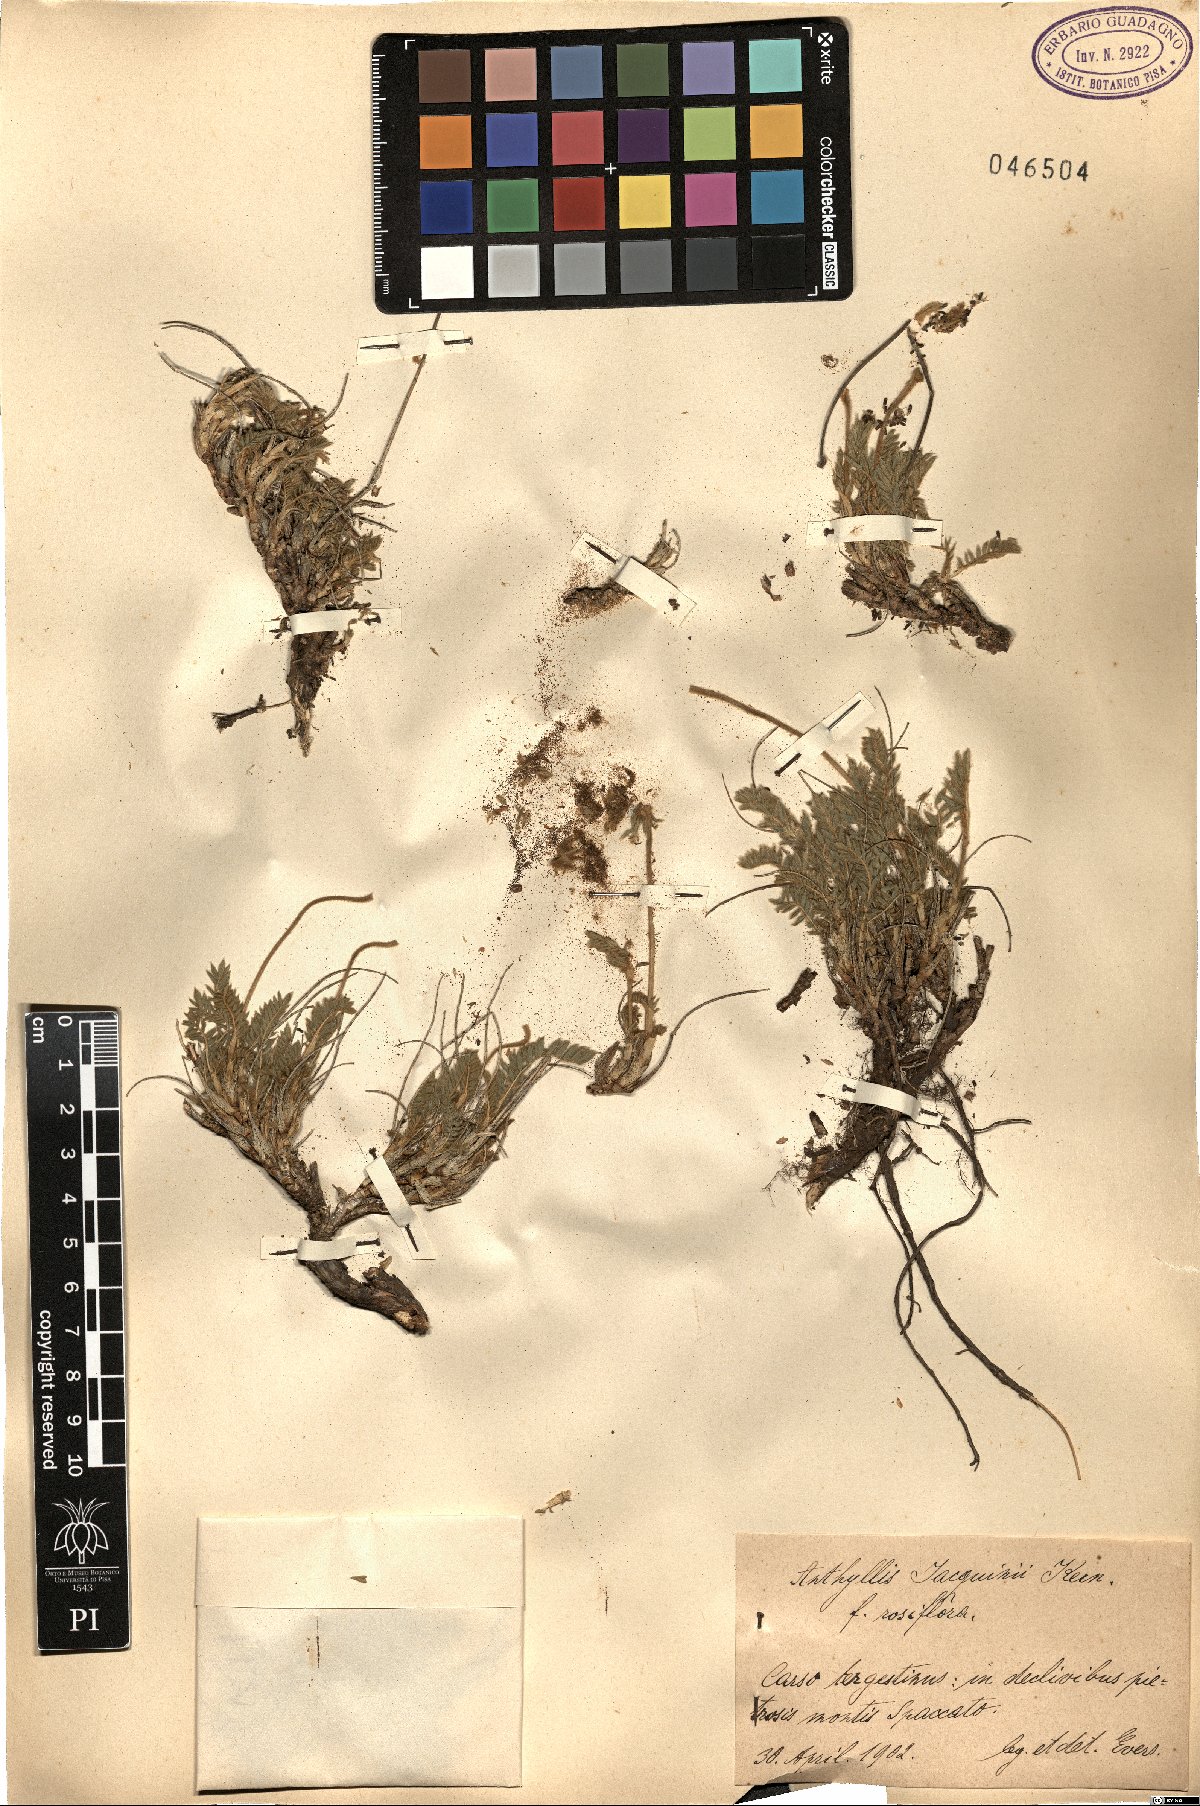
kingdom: Plantae
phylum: Tracheophyta
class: Magnoliopsida
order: Fabales
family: Fabaceae
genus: Anthyllis
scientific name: Anthyllis montana
